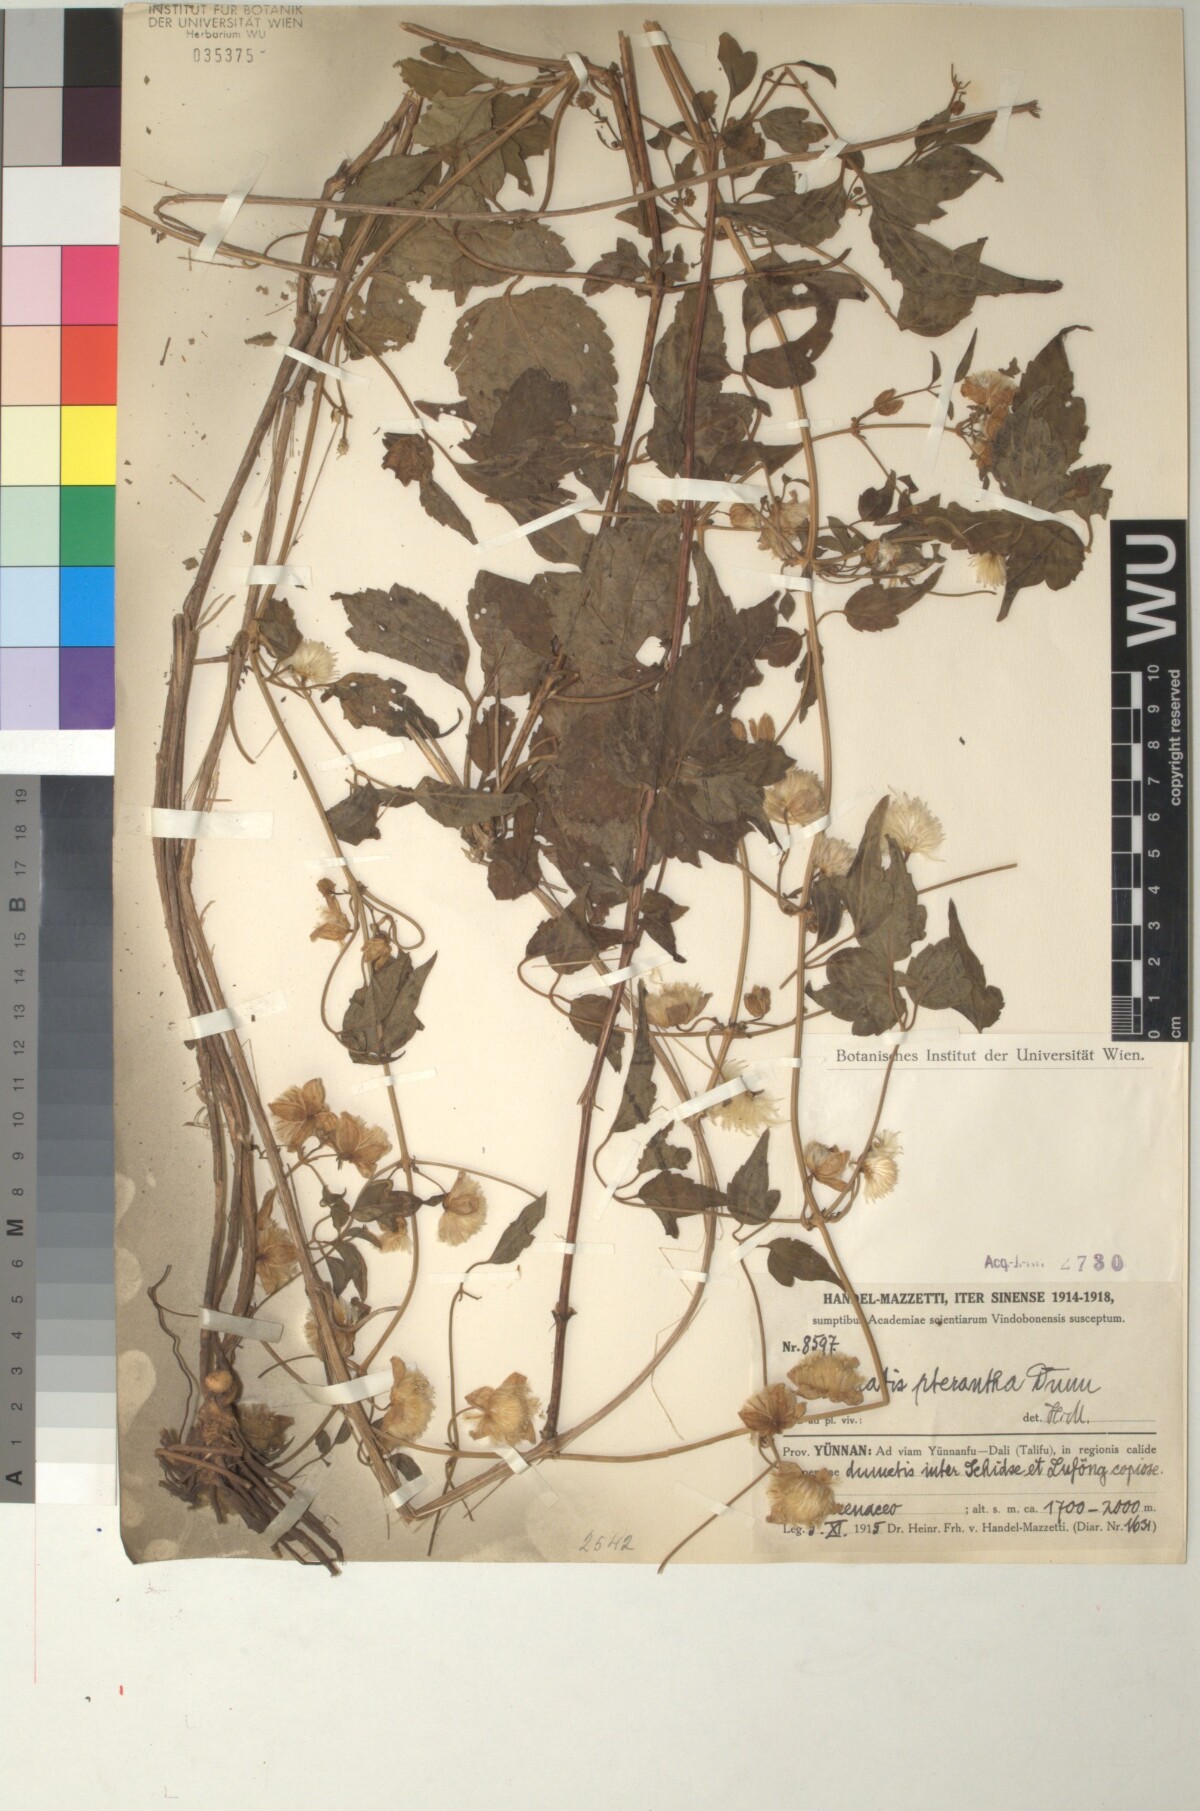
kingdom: Plantae
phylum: Tracheophyta
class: Magnoliopsida
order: Ranunculales
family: Ranunculaceae
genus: Clematis
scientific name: Clematis pterantha
